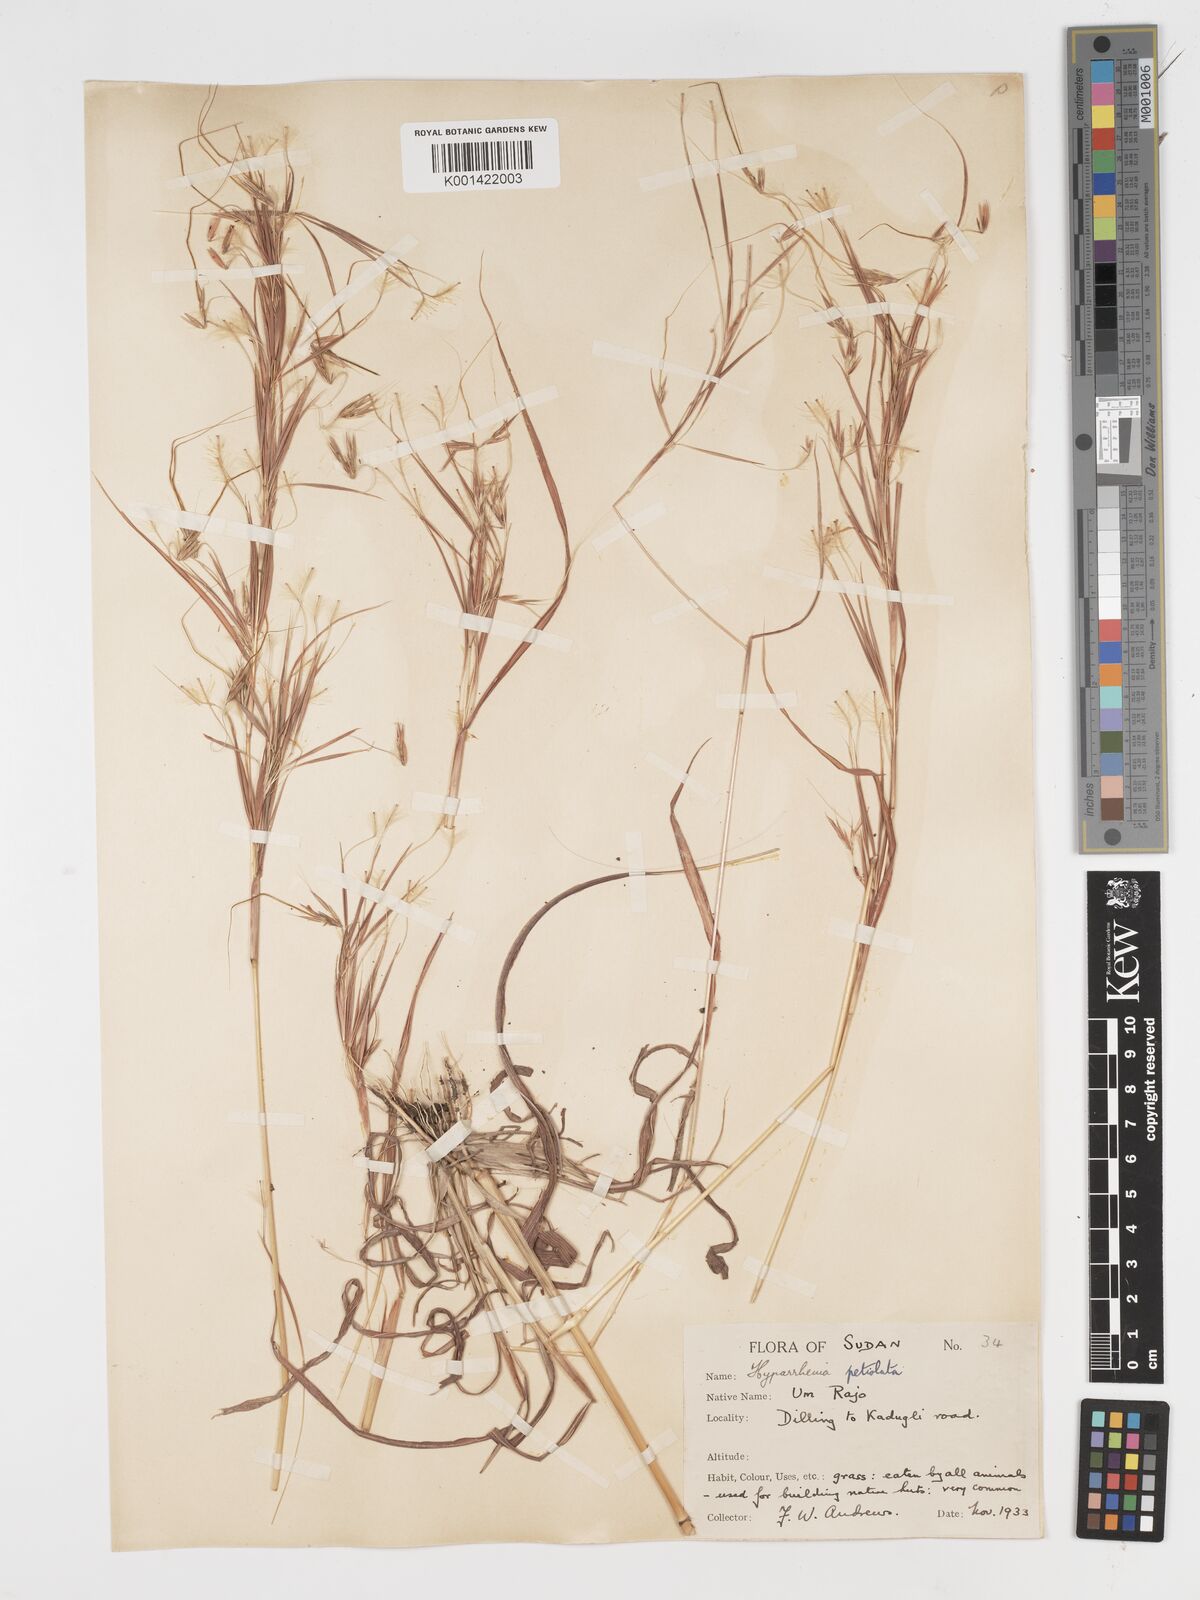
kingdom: Plantae
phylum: Tracheophyta
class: Liliopsida
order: Poales
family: Poaceae
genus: Hyparrhenia
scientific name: Hyparrhenia confinis
